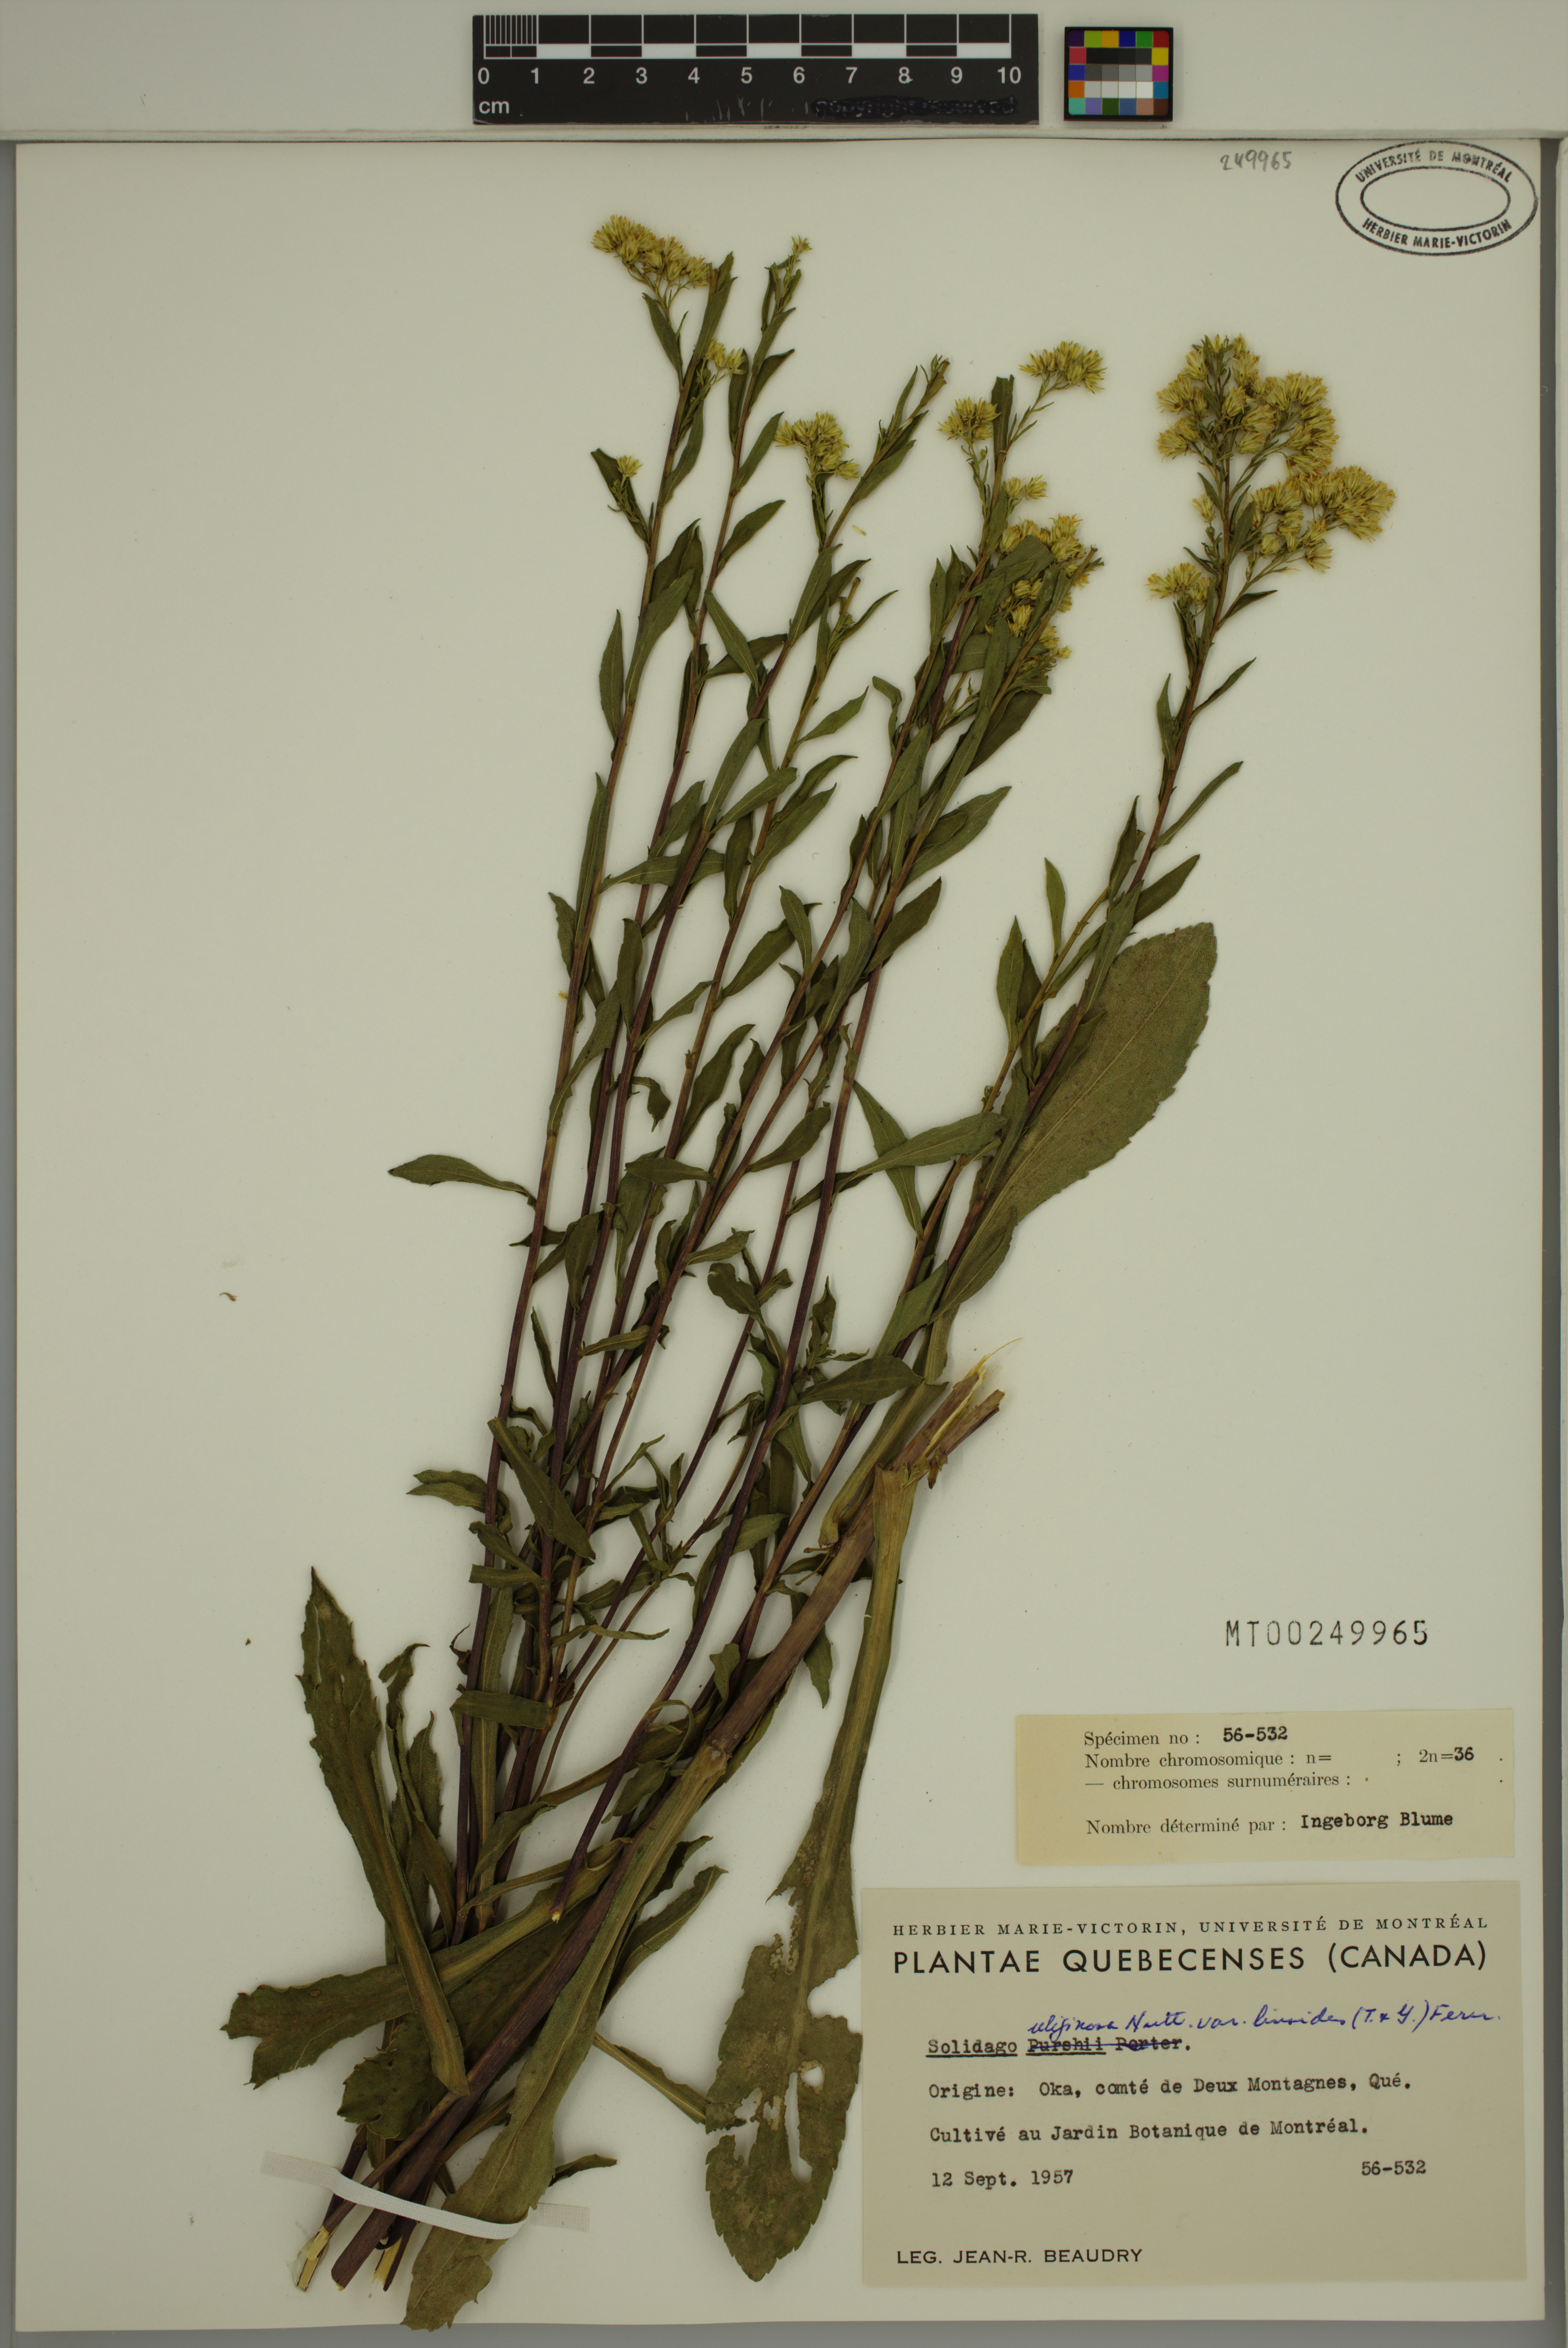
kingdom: Plantae
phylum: Tracheophyta
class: Magnoliopsida
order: Asterales
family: Asteraceae
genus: Solidago
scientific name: Solidago uliginosa
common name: Bog goldenrod
